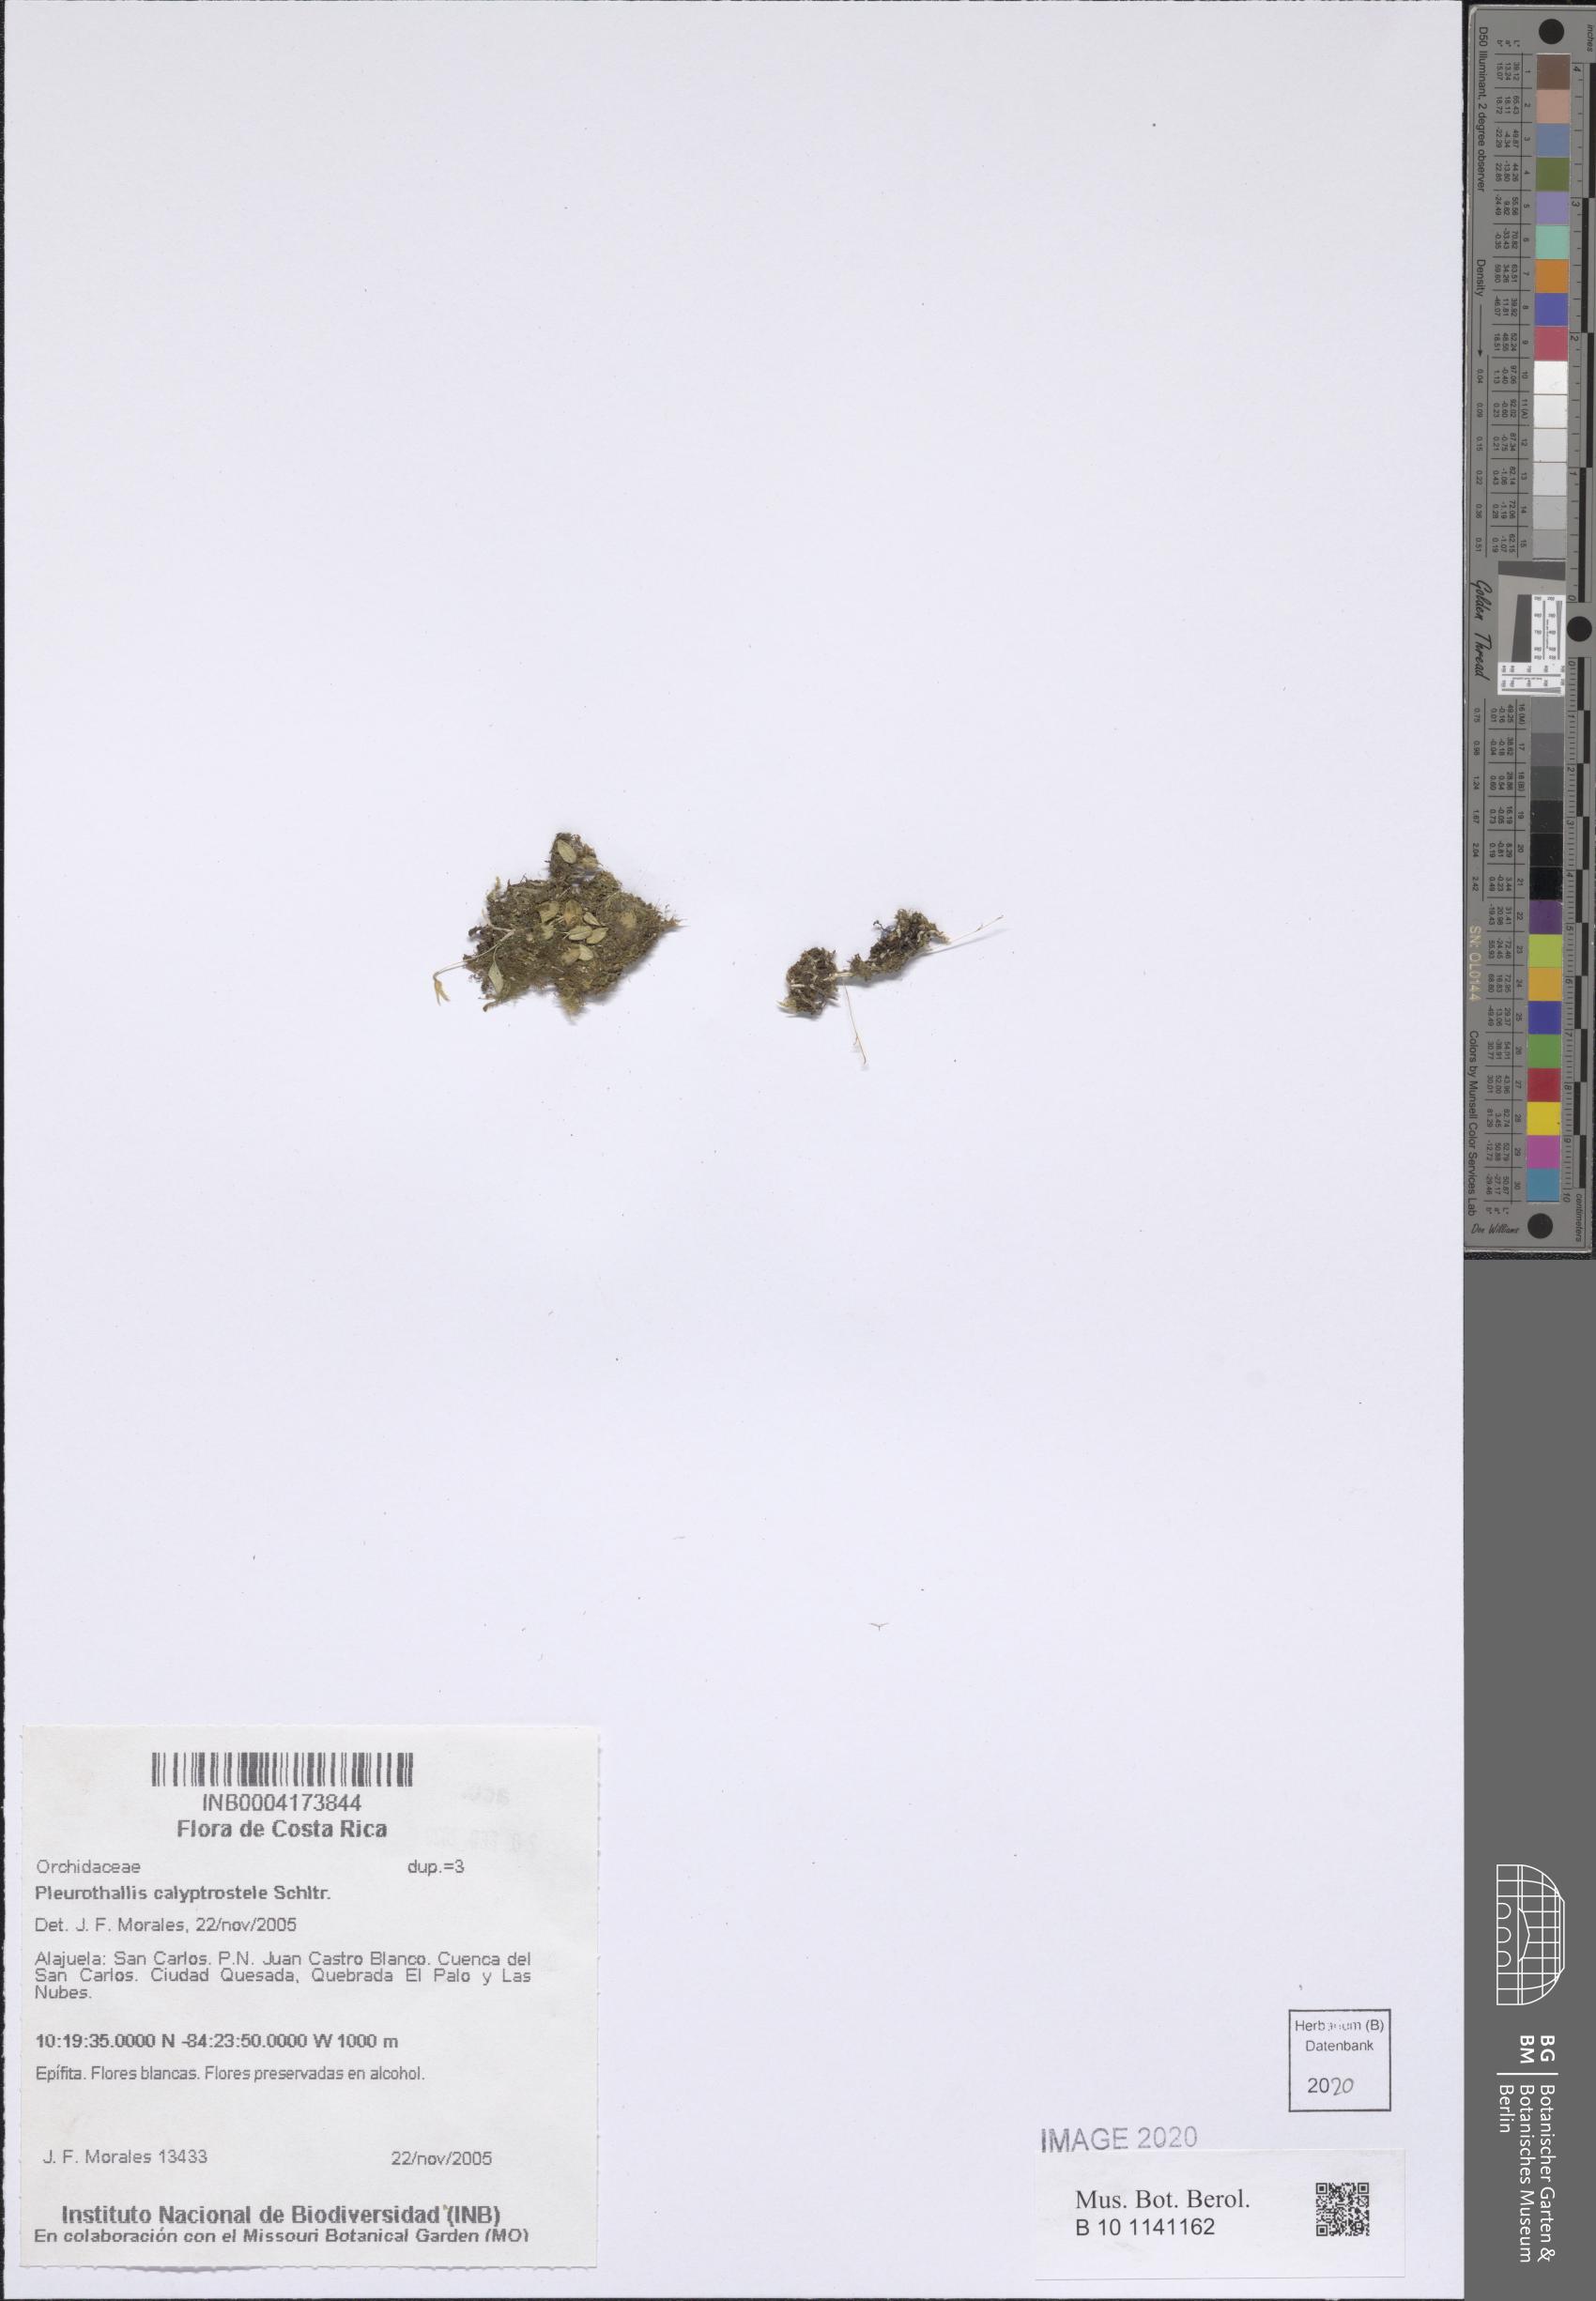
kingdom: Plantae
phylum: Tracheophyta
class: Liliopsida
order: Asparagales
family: Orchidaceae
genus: Specklinia
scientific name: Specklinia calyptrostele
